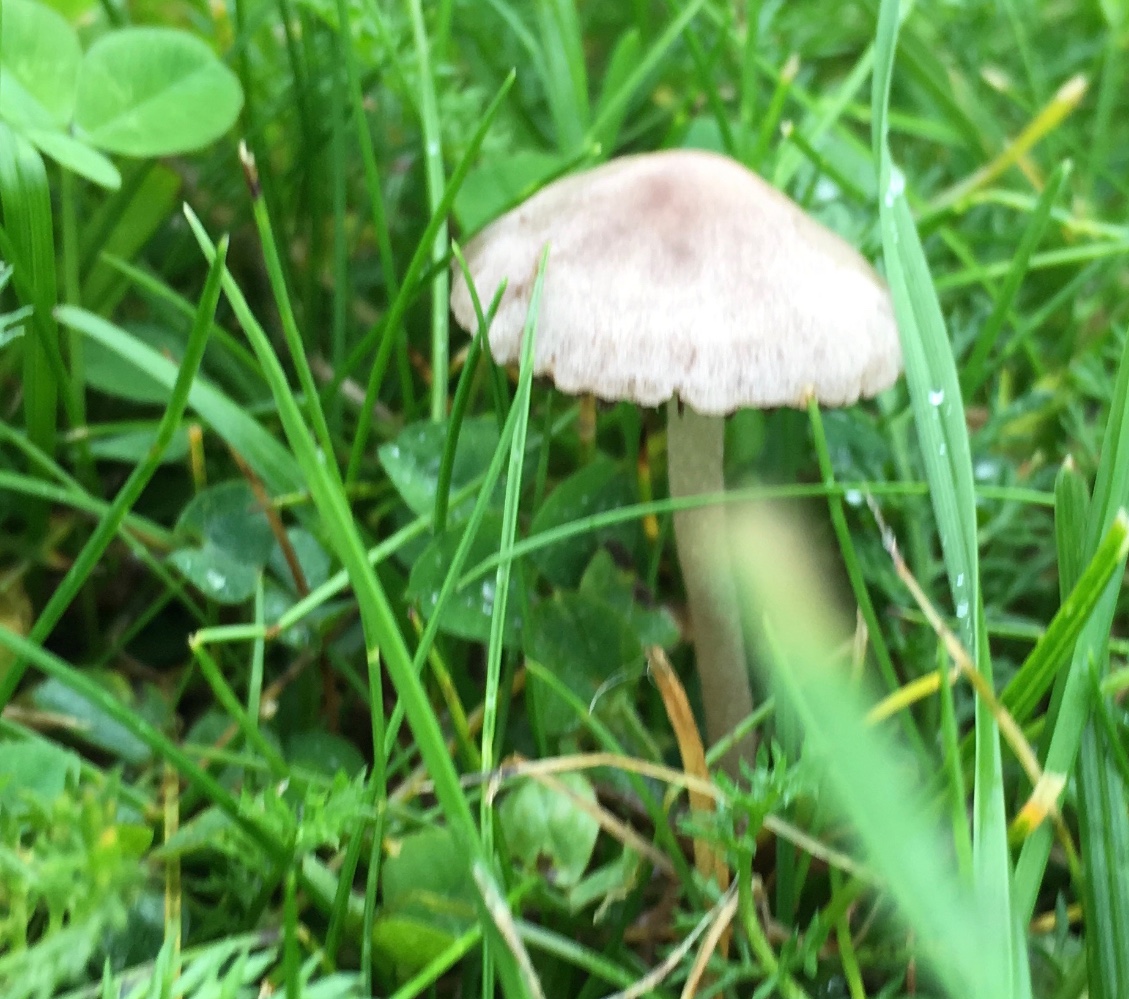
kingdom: Fungi
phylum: Basidiomycota
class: Agaricomycetes
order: Agaricales
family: Bolbitiaceae
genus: Panaeolina
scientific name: Panaeolina foenisecii
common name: høslætsvamp
